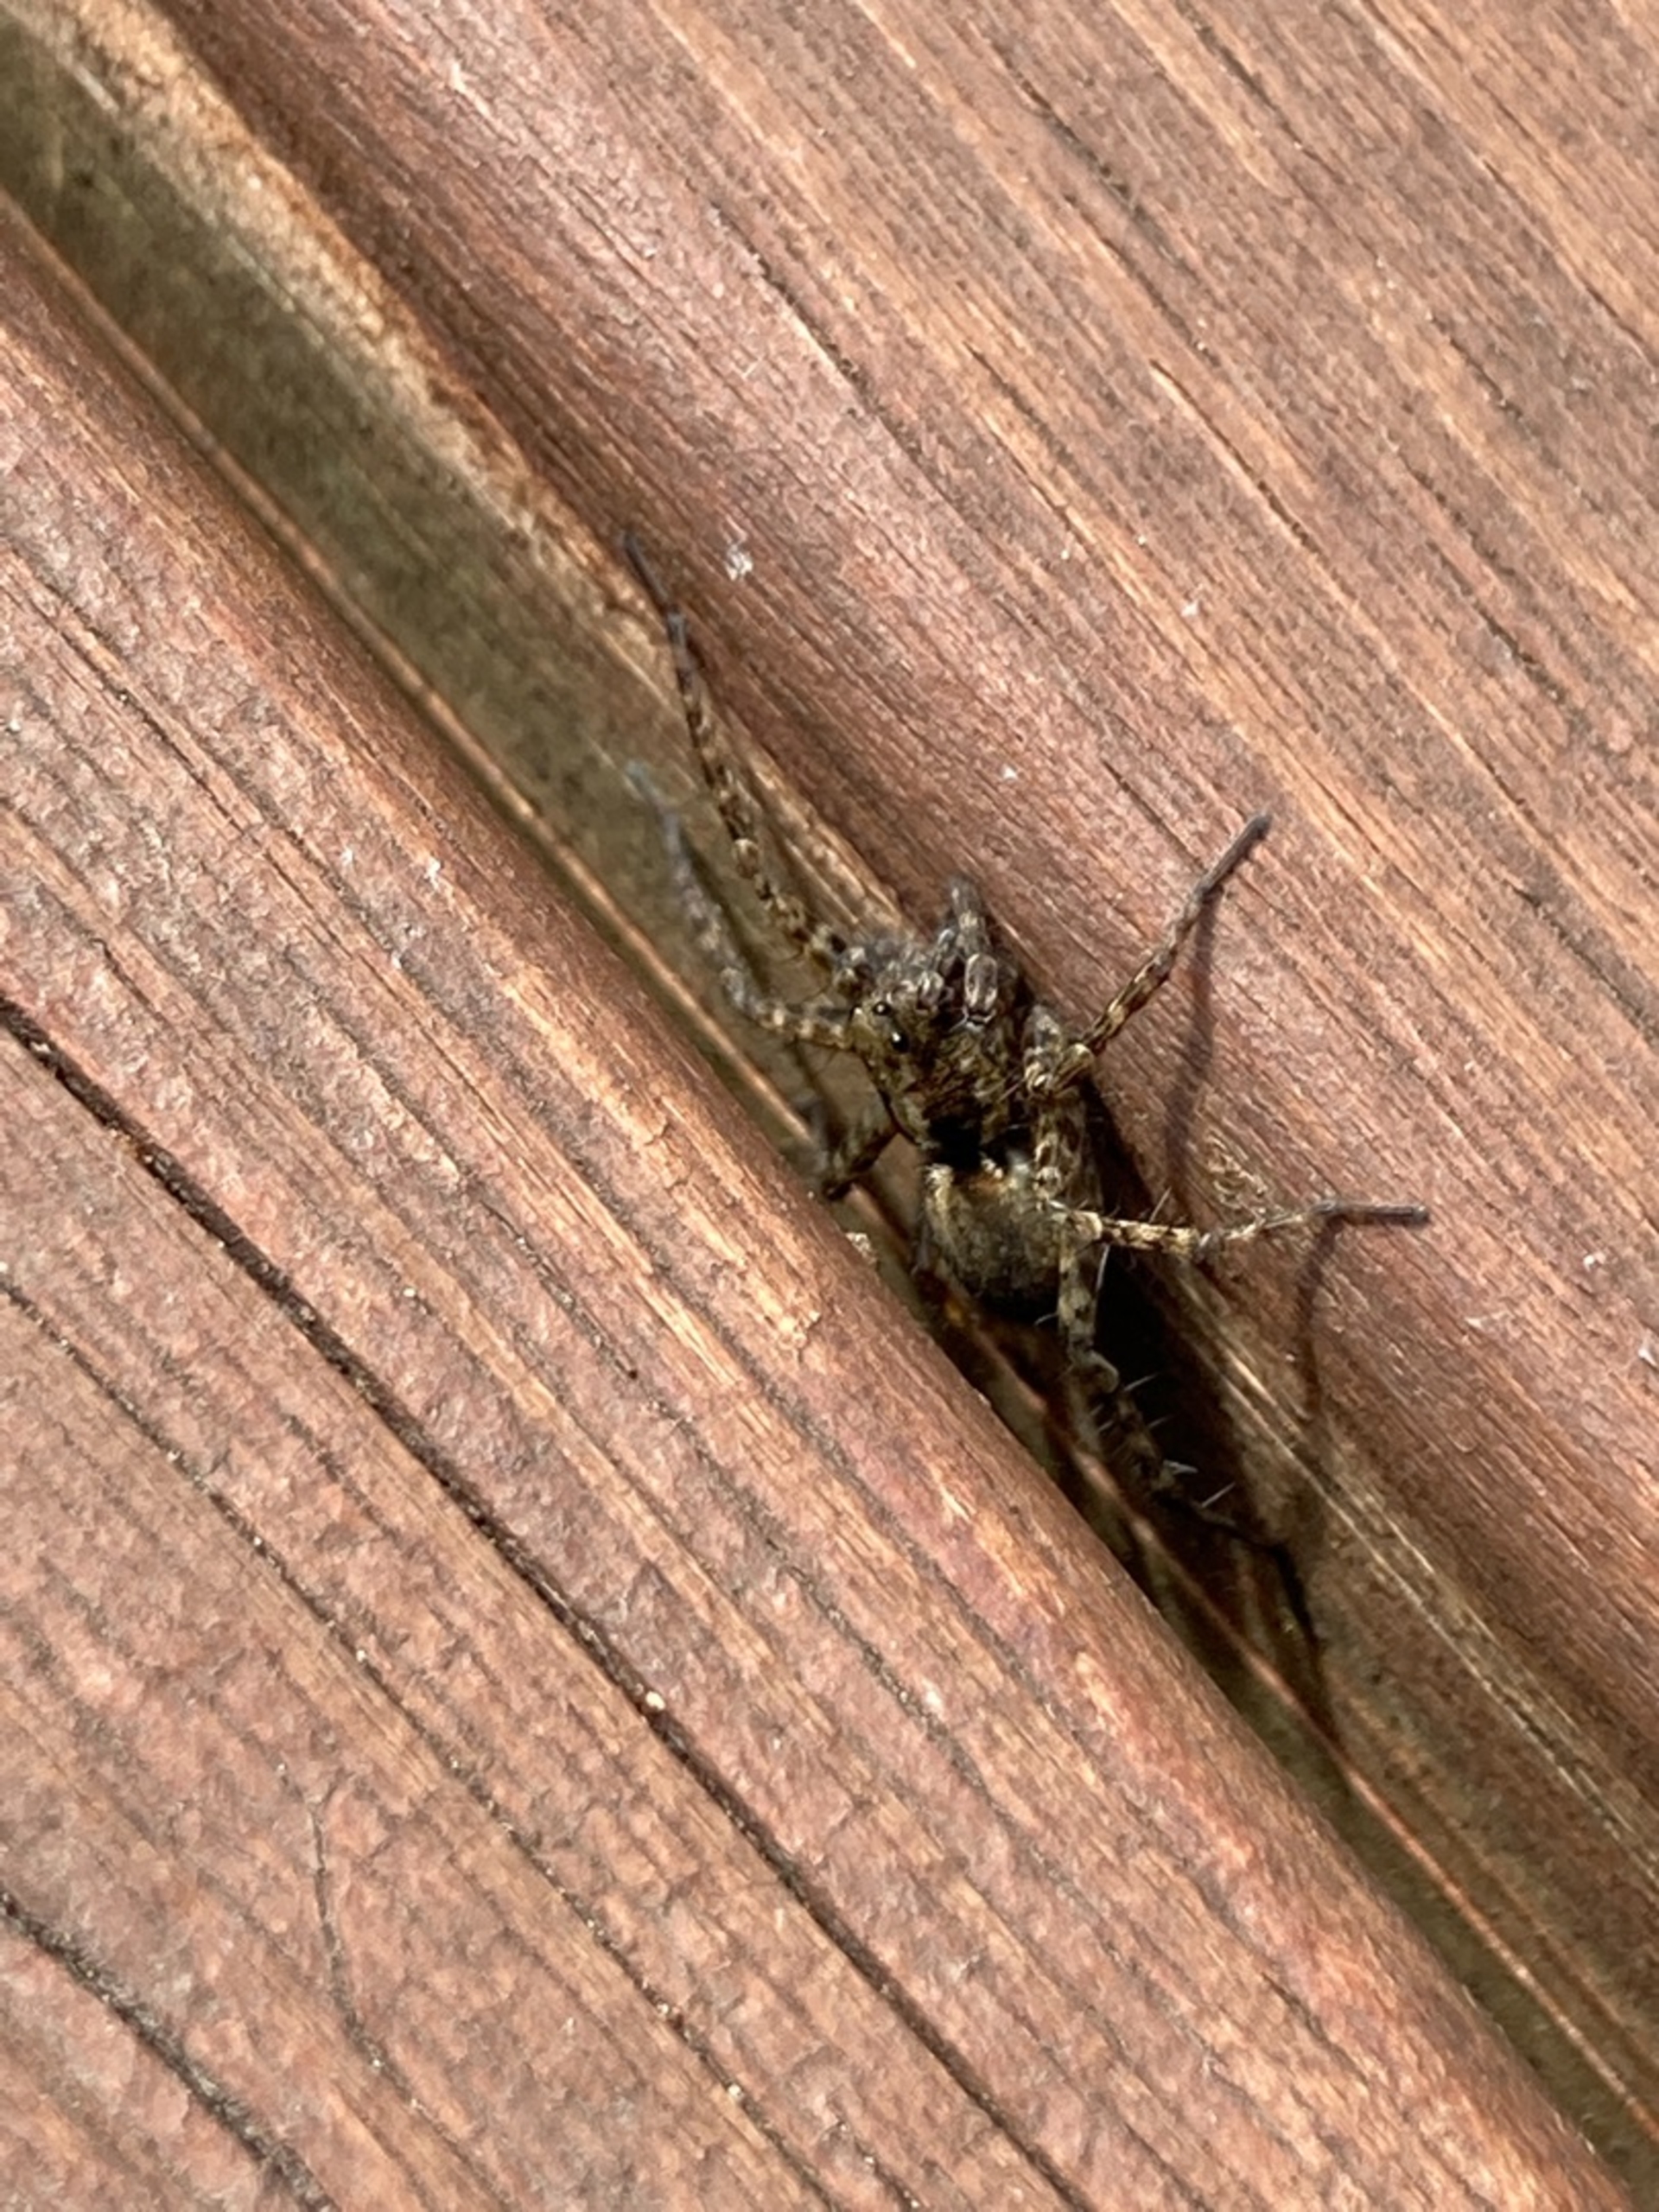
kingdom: Animalia
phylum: Arthropoda
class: Arachnida
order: Araneae
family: Lycosidae
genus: Pardosa
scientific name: Pardosa
